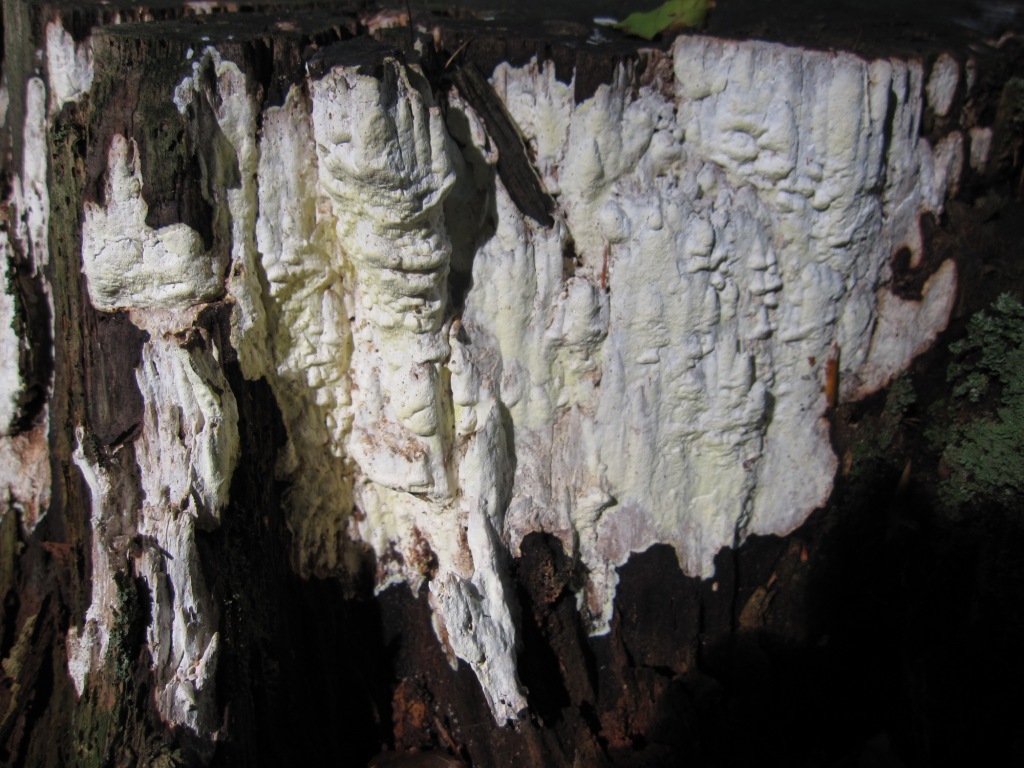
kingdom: Fungi
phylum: Basidiomycota
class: Agaricomycetes
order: Polyporales
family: Fomitopsidaceae
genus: Daedalea
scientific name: Daedalea xantha
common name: gul sejporesvamp
